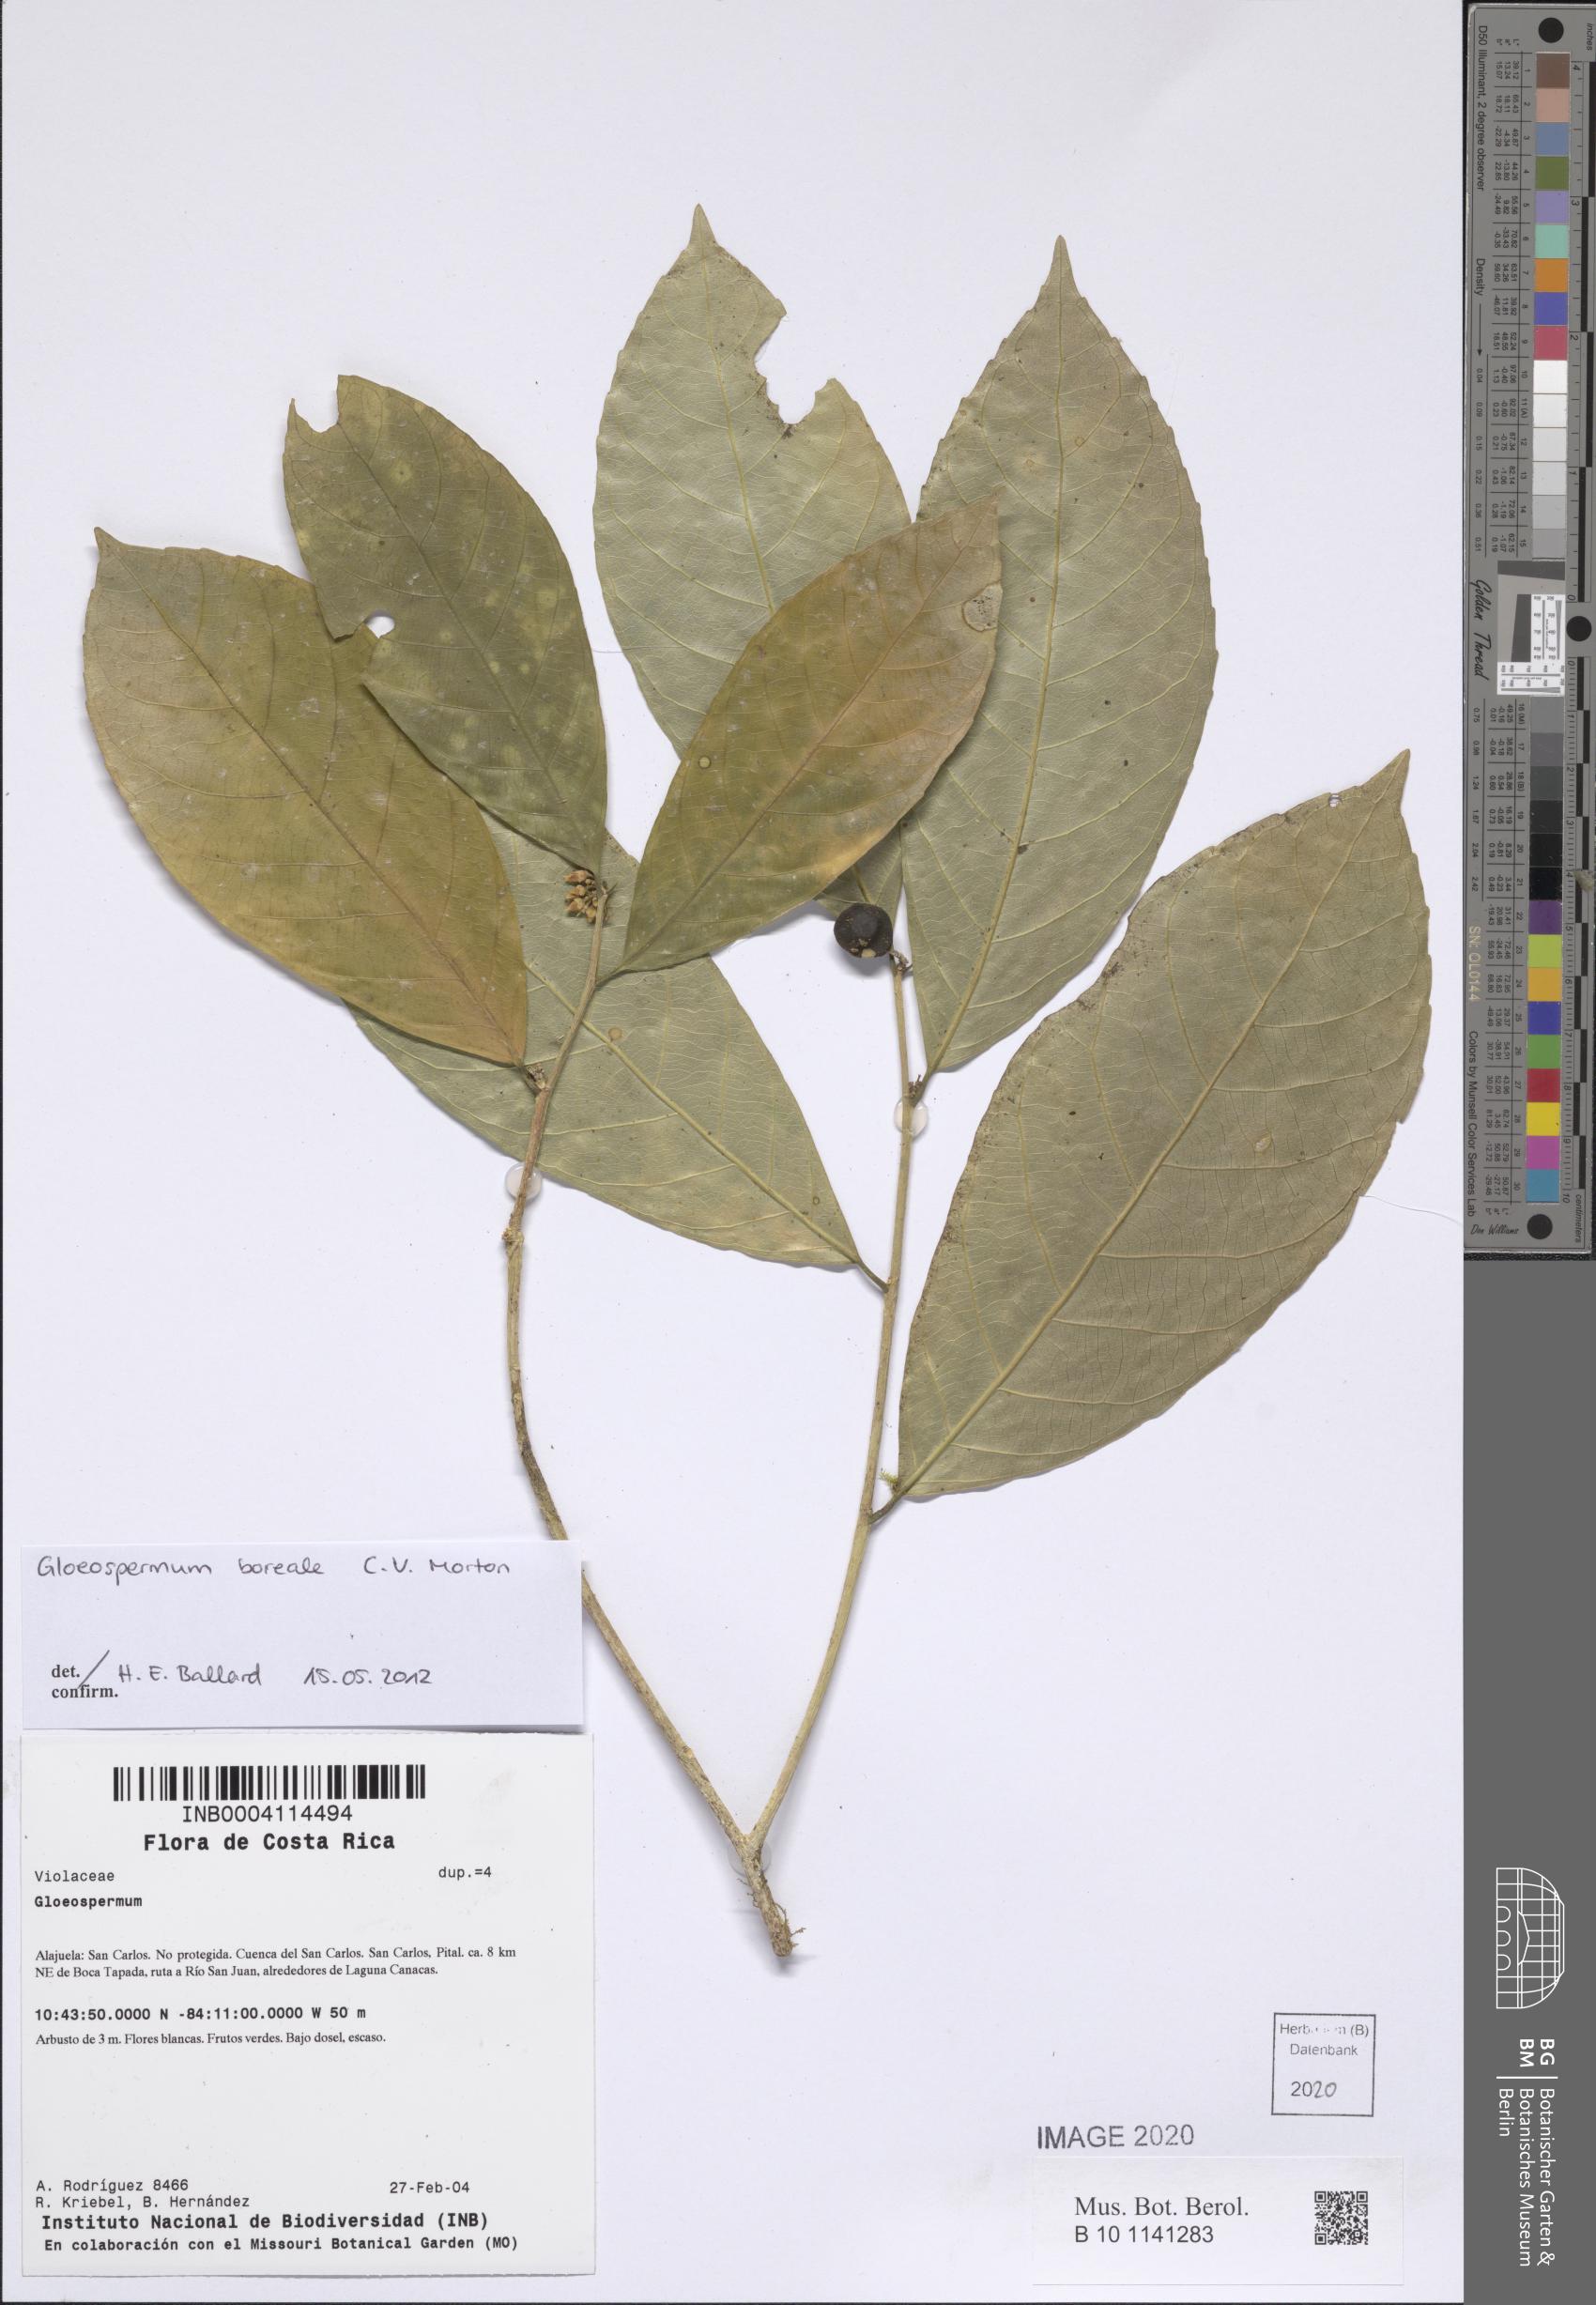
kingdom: Plantae
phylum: Tracheophyta
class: Magnoliopsida
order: Malpighiales
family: Violaceae
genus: Gloeospermum
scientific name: Gloeospermum boreale
